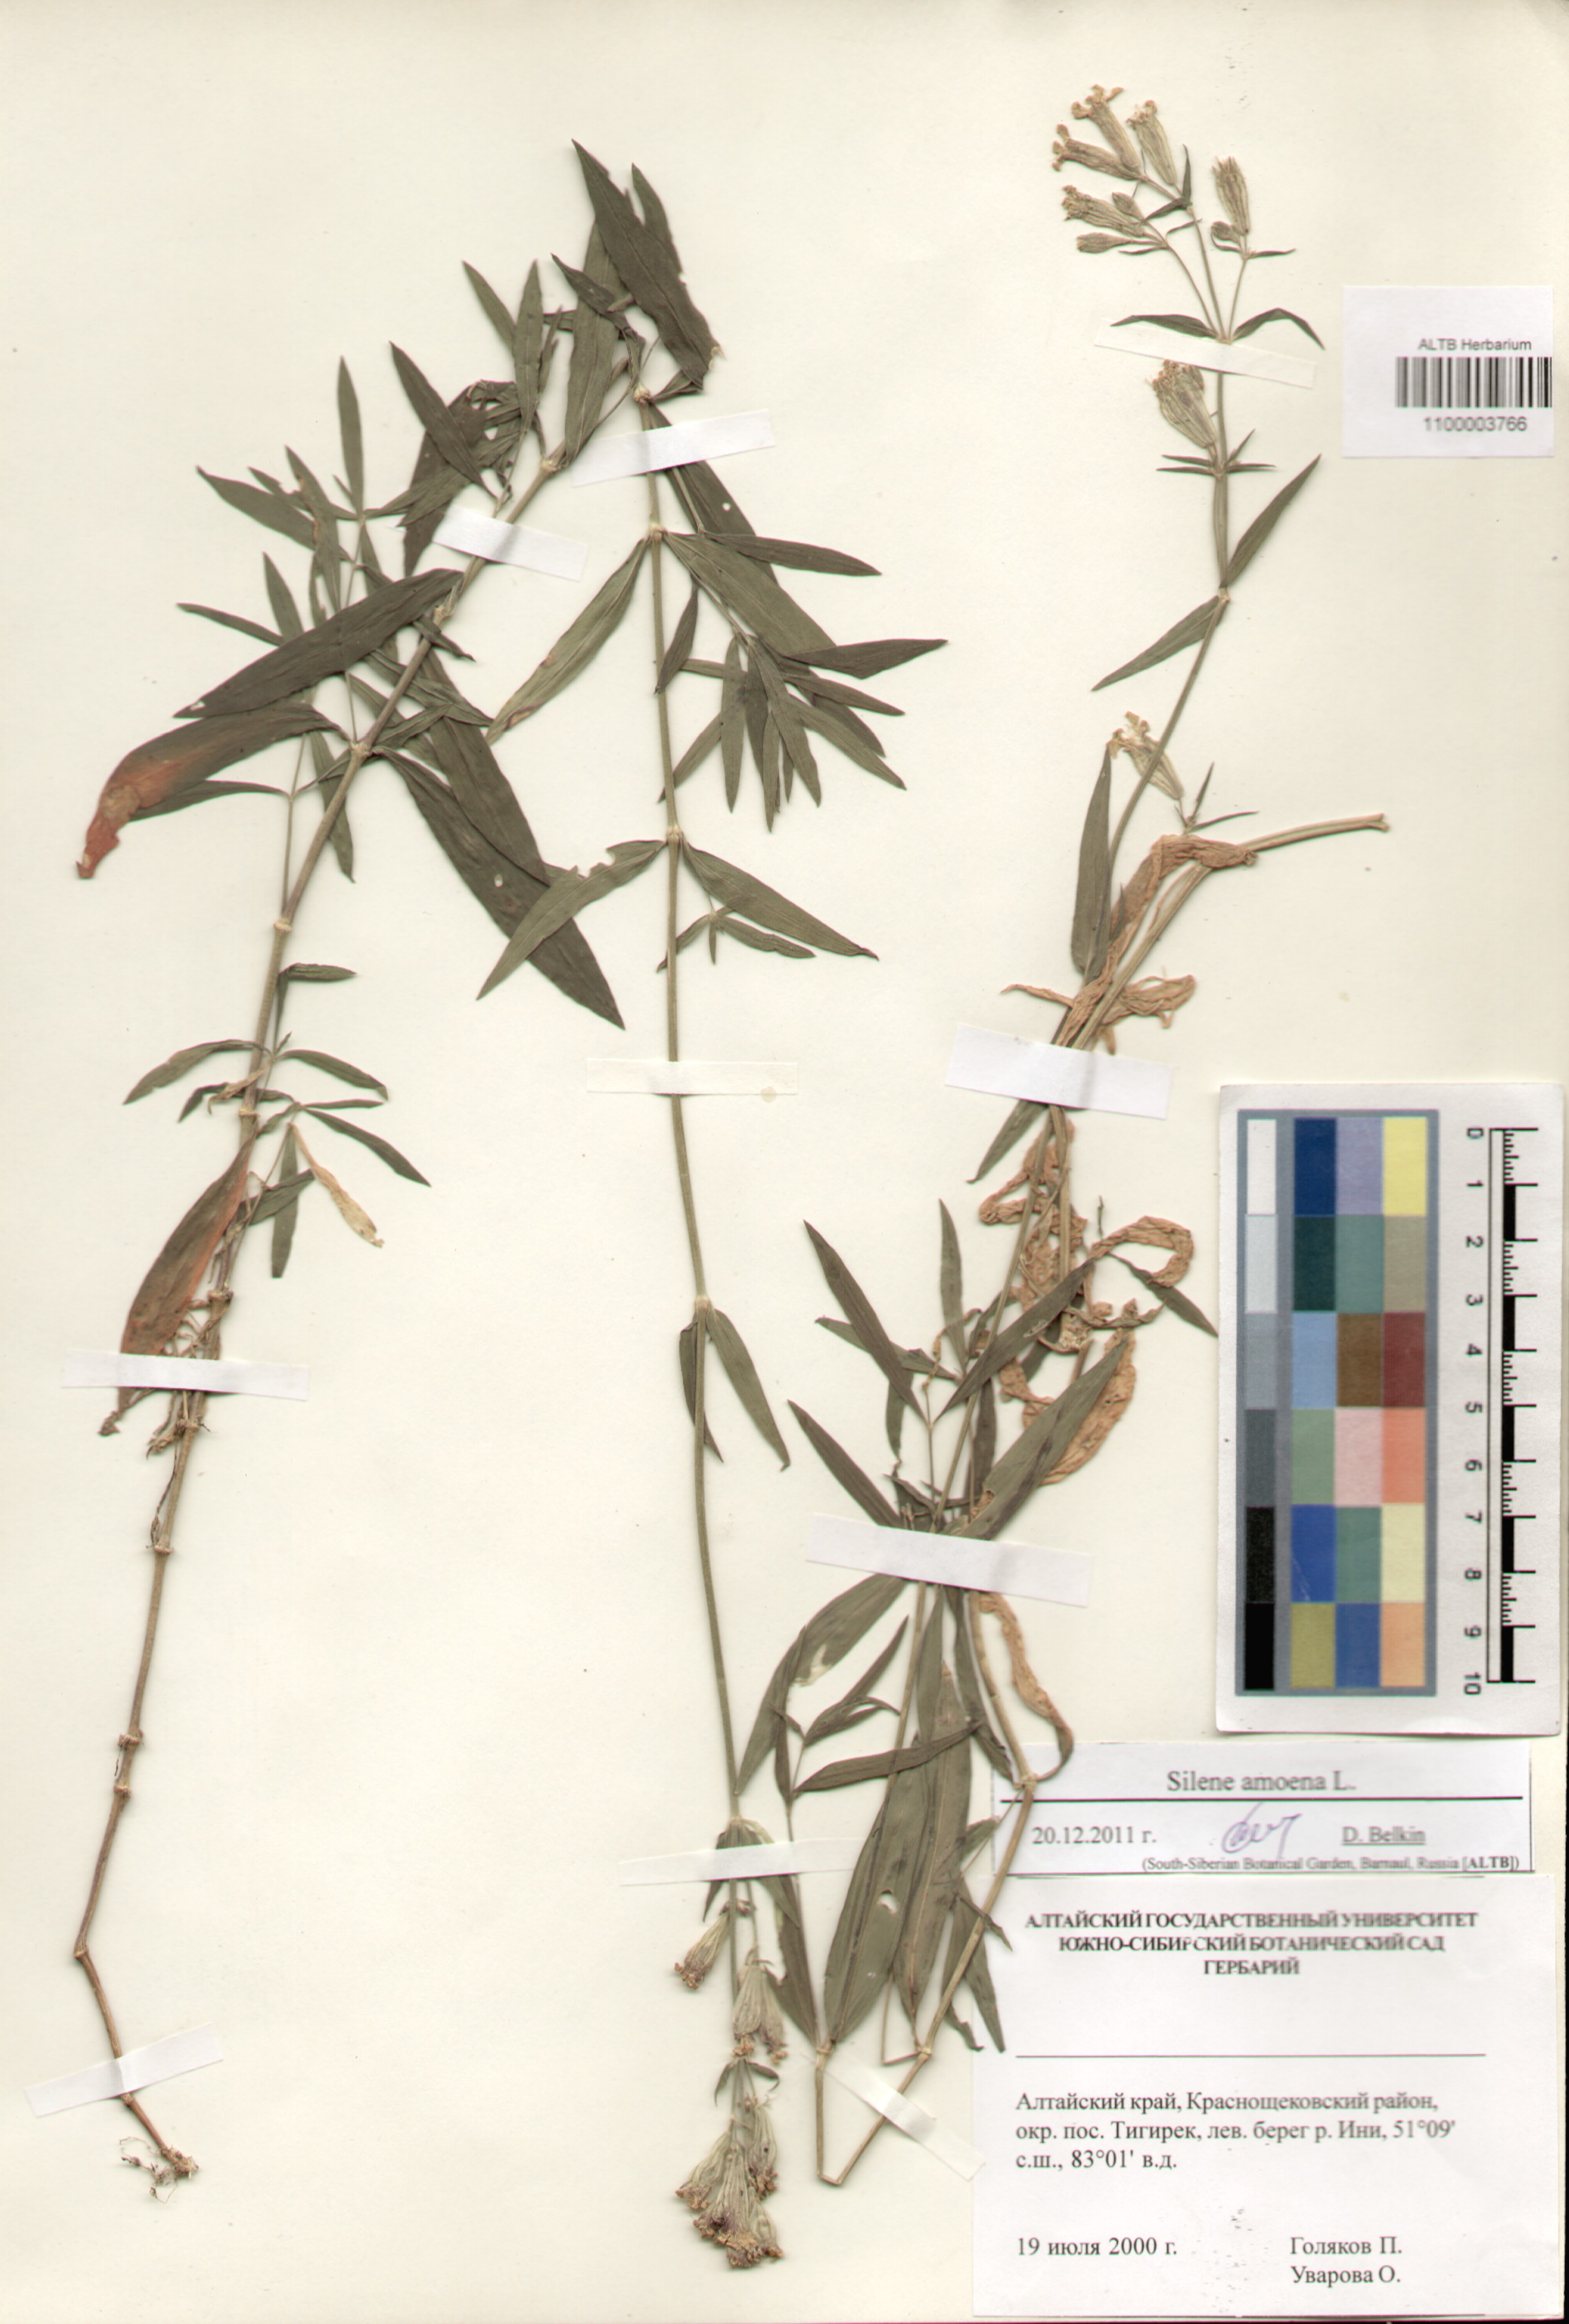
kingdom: Plantae
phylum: Tracheophyta
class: Magnoliopsida
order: Caryophyllales
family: Caryophyllaceae
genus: Silene
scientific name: Silene amoena
